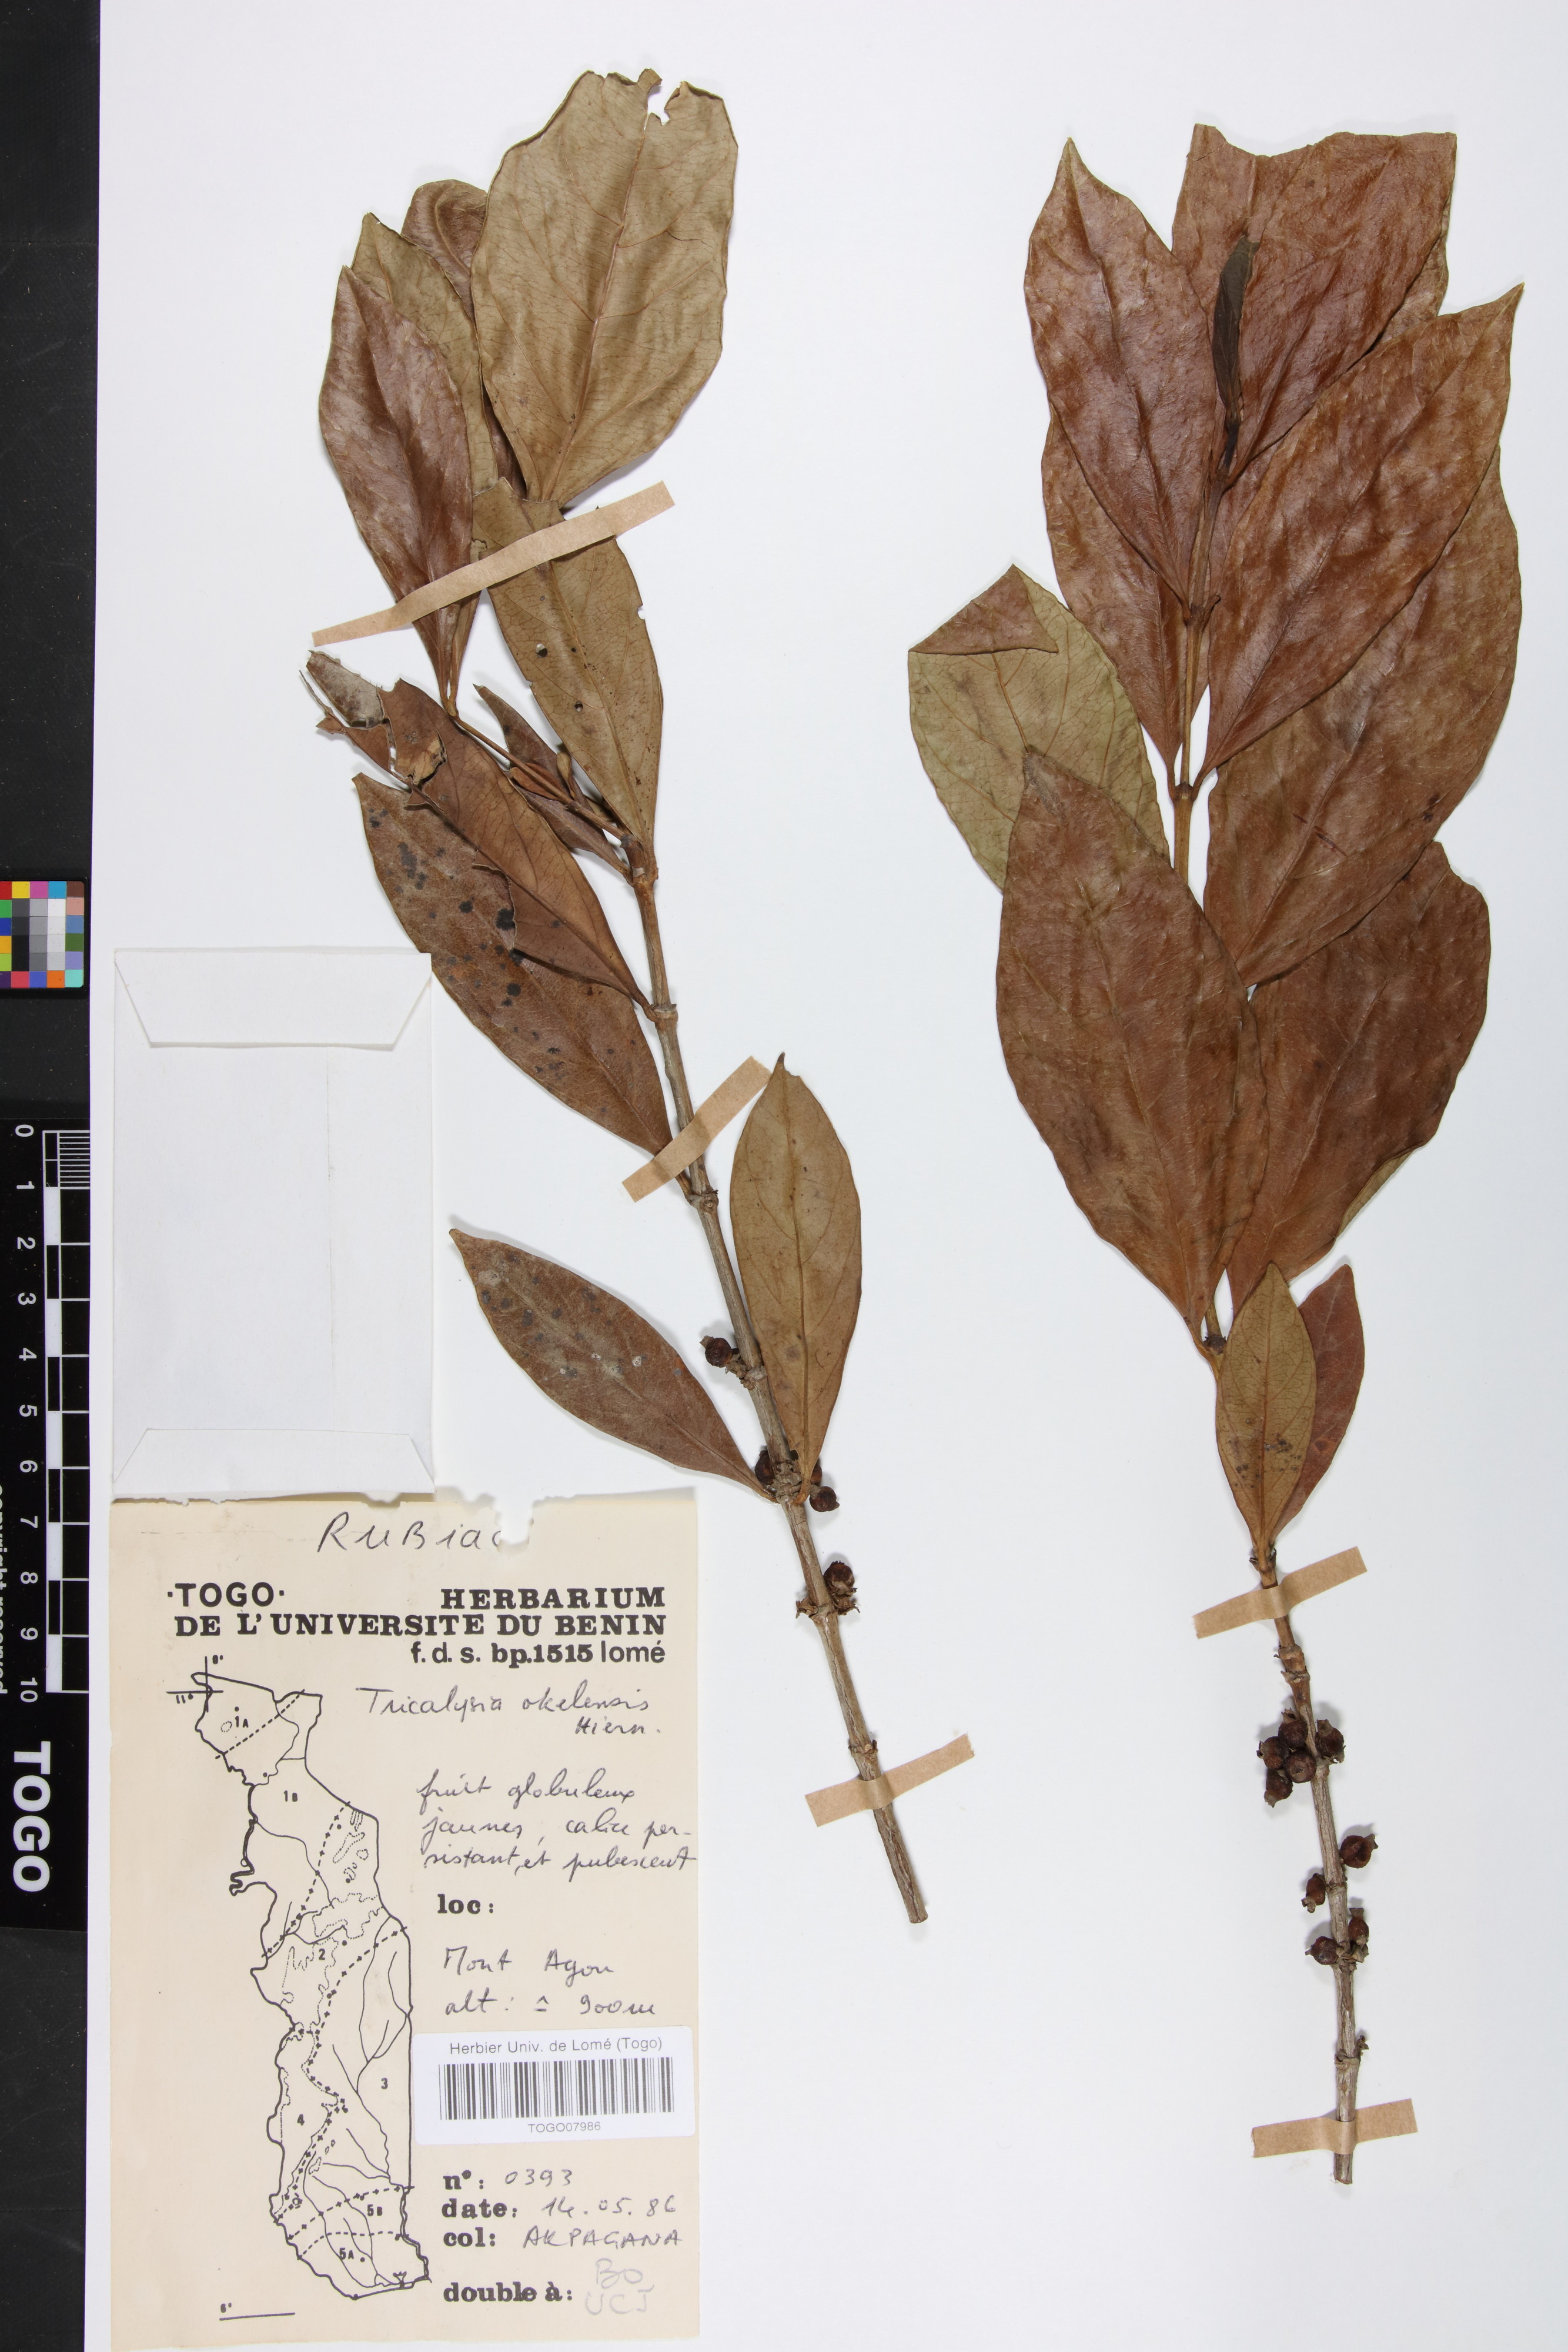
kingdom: Plantae
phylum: Tracheophyta
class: Magnoliopsida
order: Gentianales
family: Rubiaceae
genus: Tricalysia
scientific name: Tricalysia okelensis
